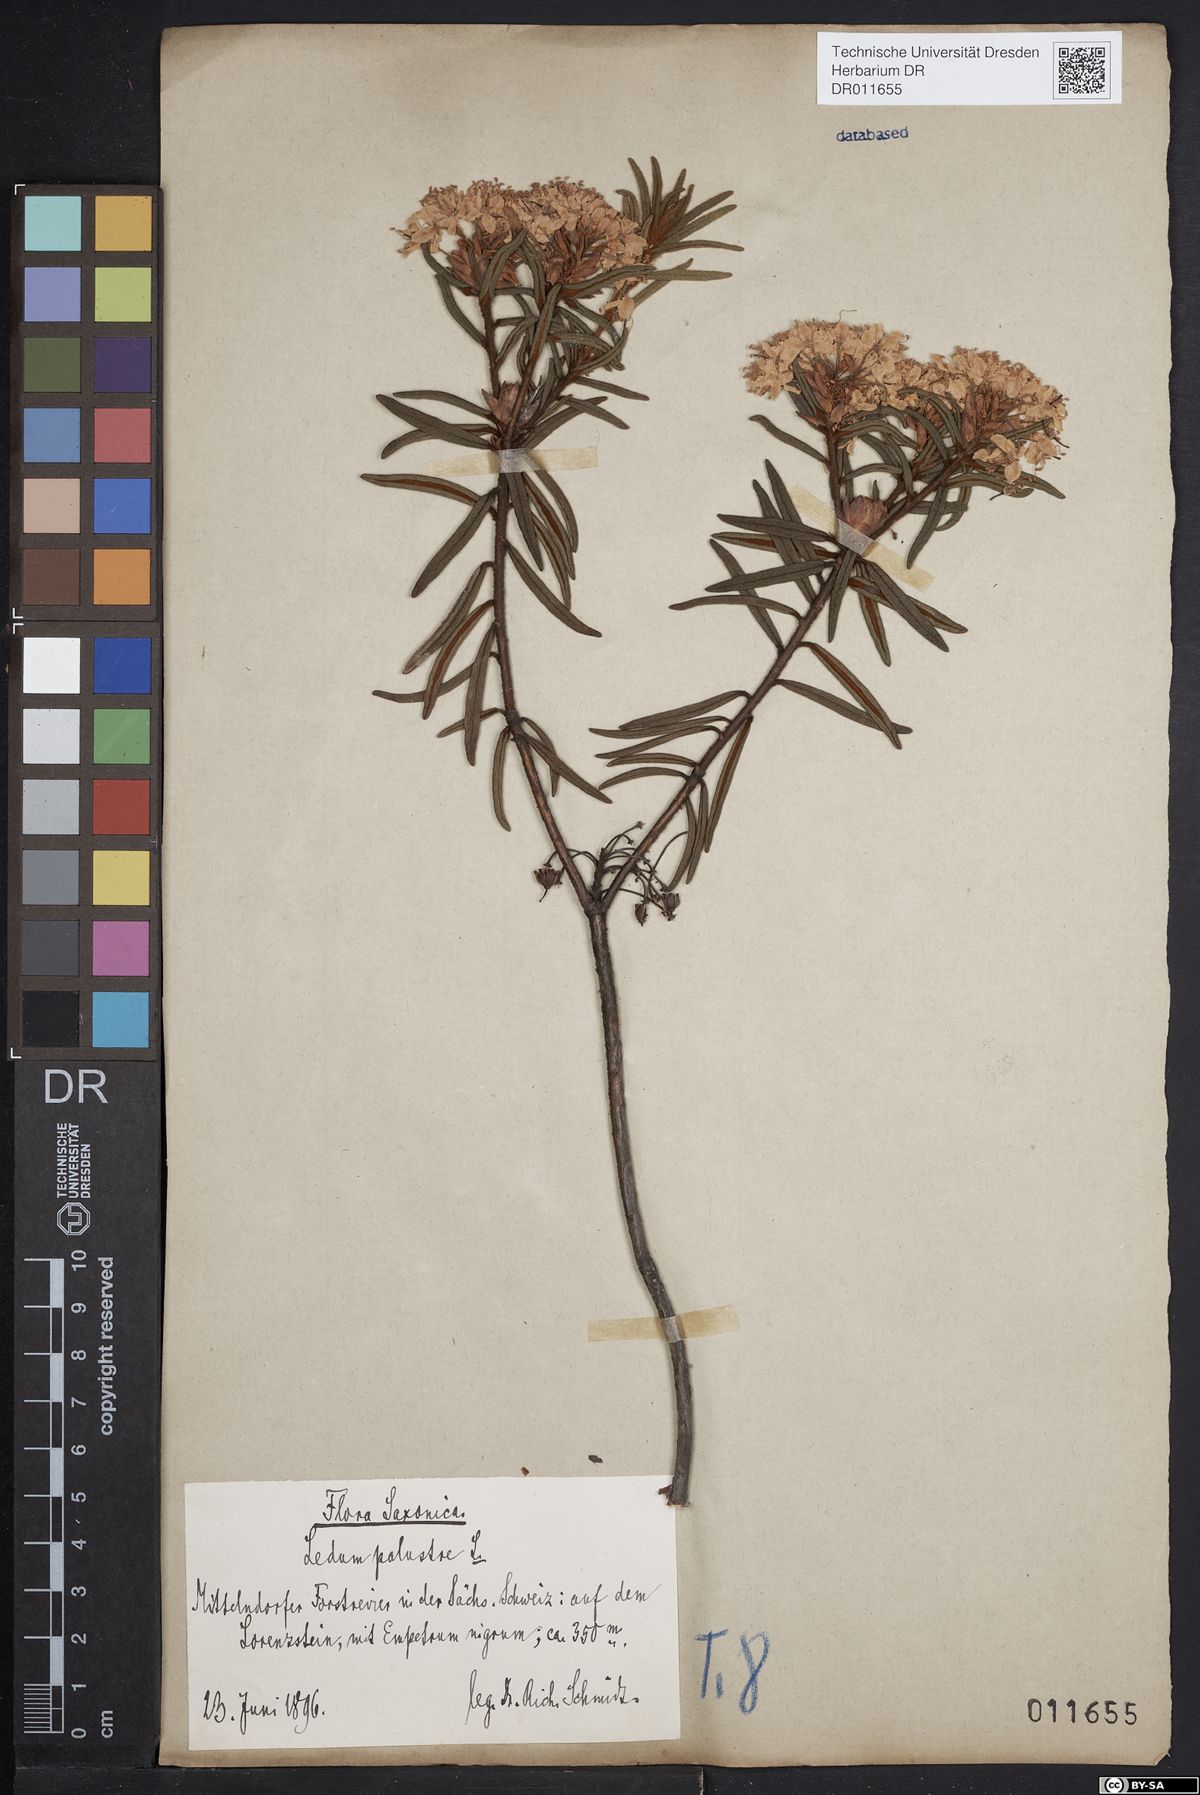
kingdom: Plantae
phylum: Tracheophyta
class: Magnoliopsida
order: Ericales
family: Ericaceae
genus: Rhododendron
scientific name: Rhododendron tomentosum
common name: Marsh labrador tea
